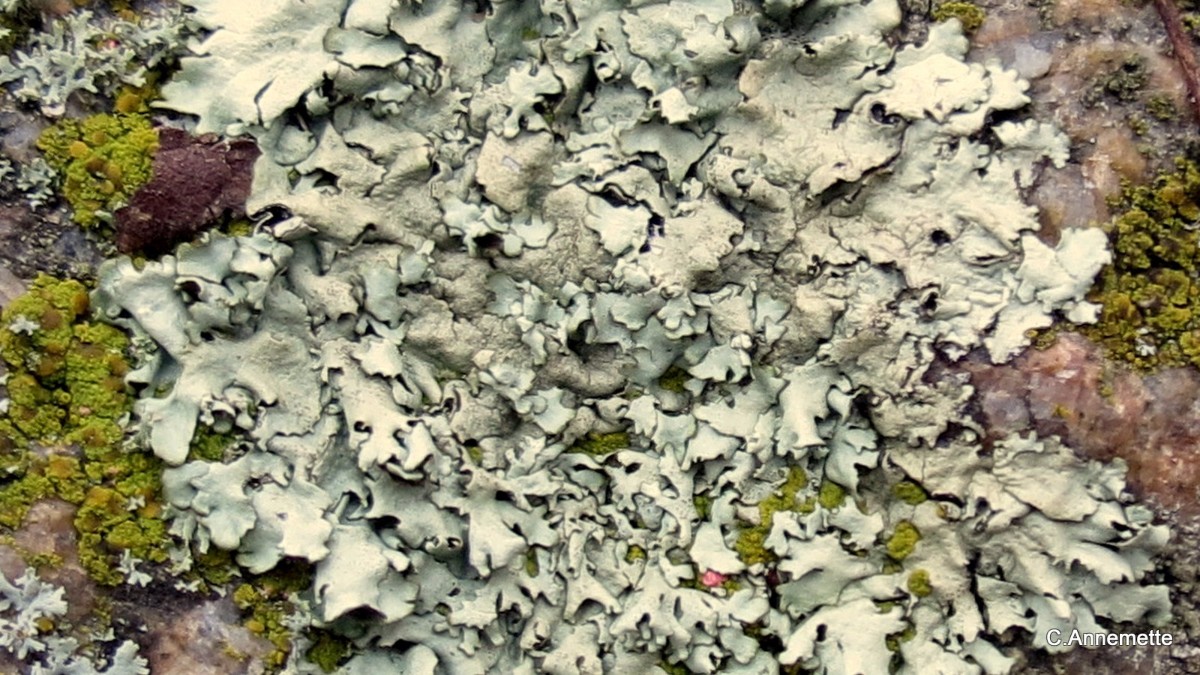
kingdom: Fungi
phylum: Ascomycota
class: Lecanoromycetes
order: Lecanorales
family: Parmeliaceae
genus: Xanthoparmelia
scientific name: Xanthoparmelia stenophylla
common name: Shingled rock shield
